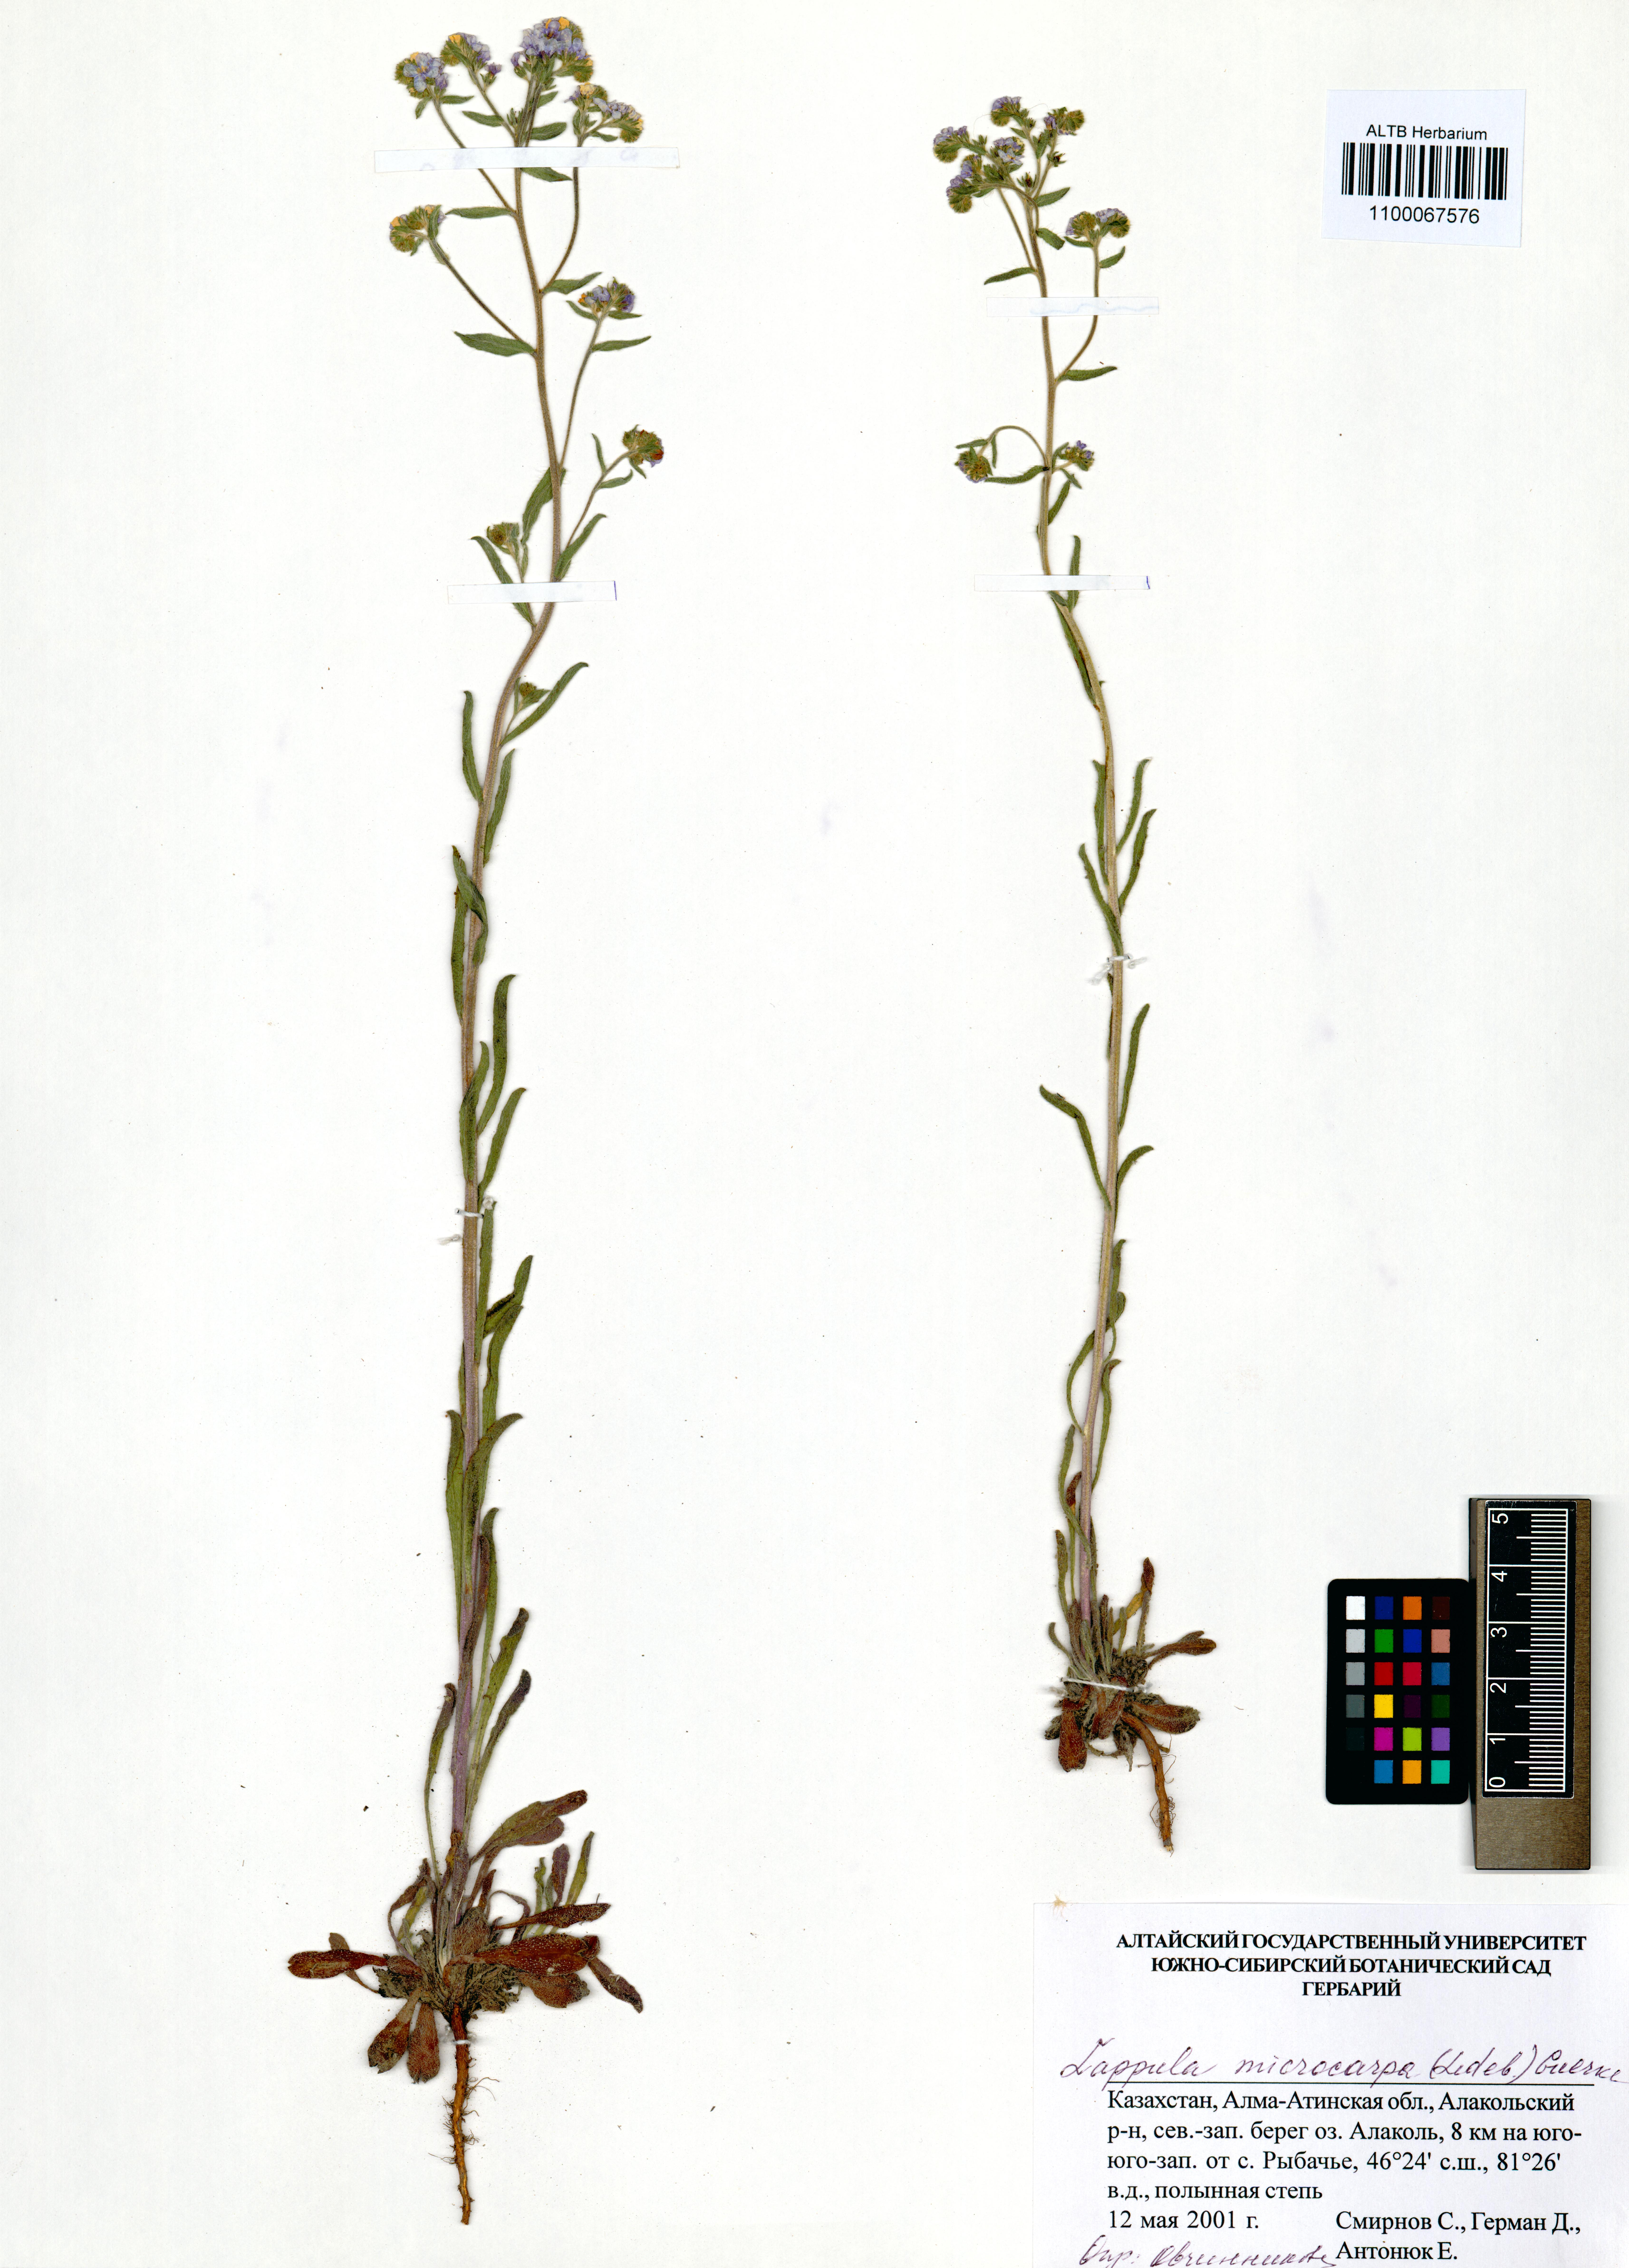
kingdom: Plantae
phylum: Tracheophyta
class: Magnoliopsida
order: Boraginales
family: Boraginaceae
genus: Lappula
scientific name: Lappula microcarpa
